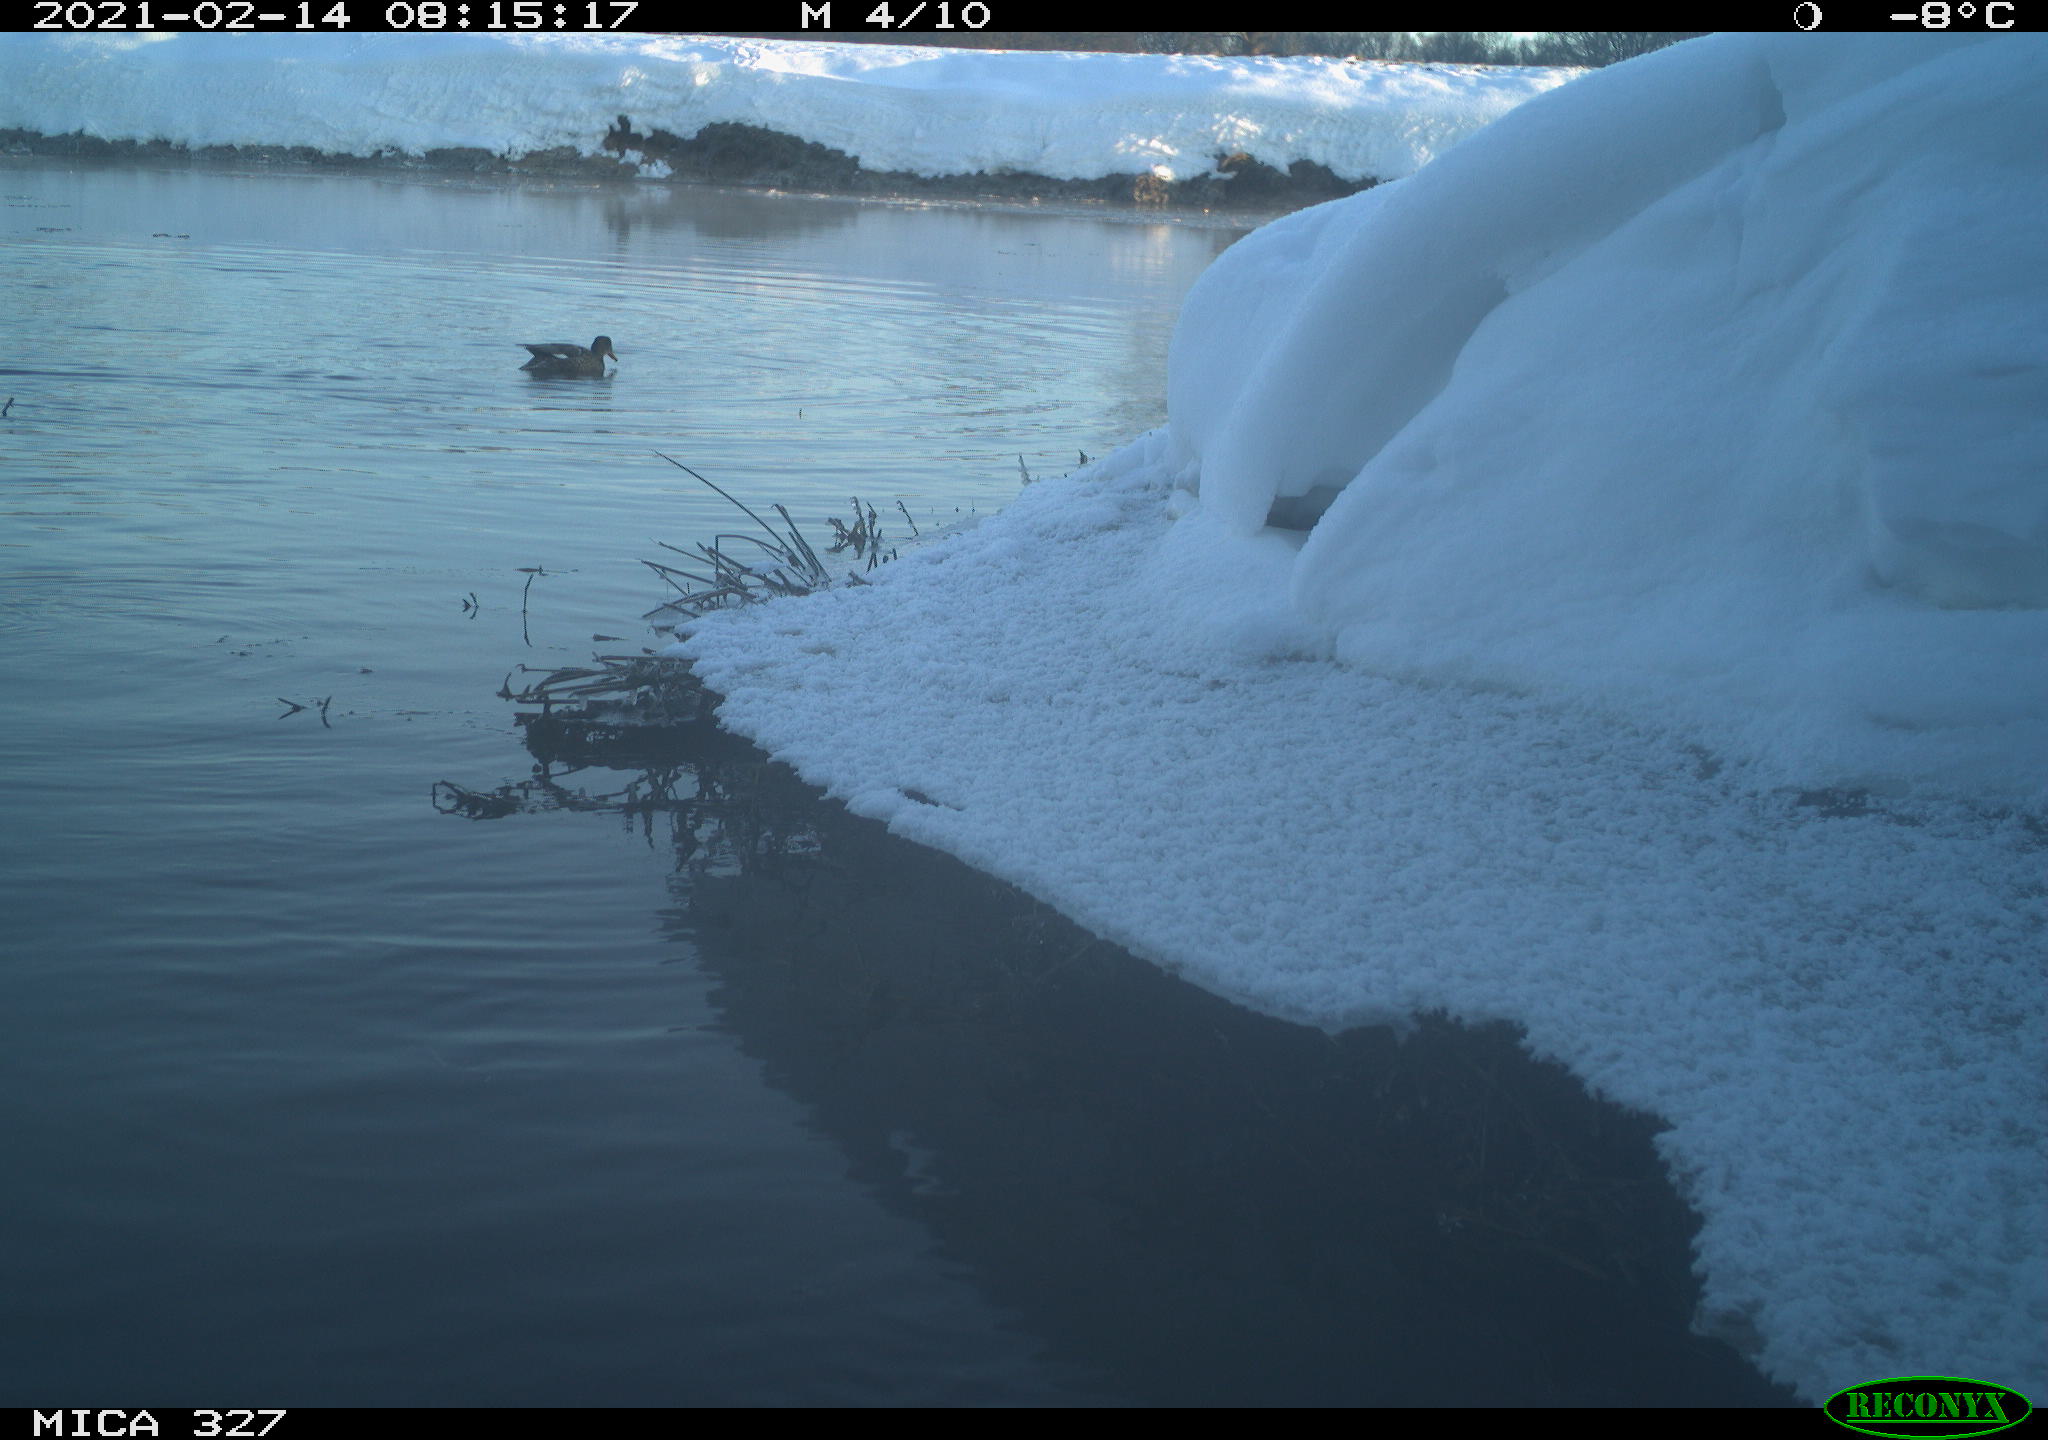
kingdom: Animalia
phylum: Chordata
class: Aves
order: Anseriformes
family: Anatidae
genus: Anas
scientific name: Anas
